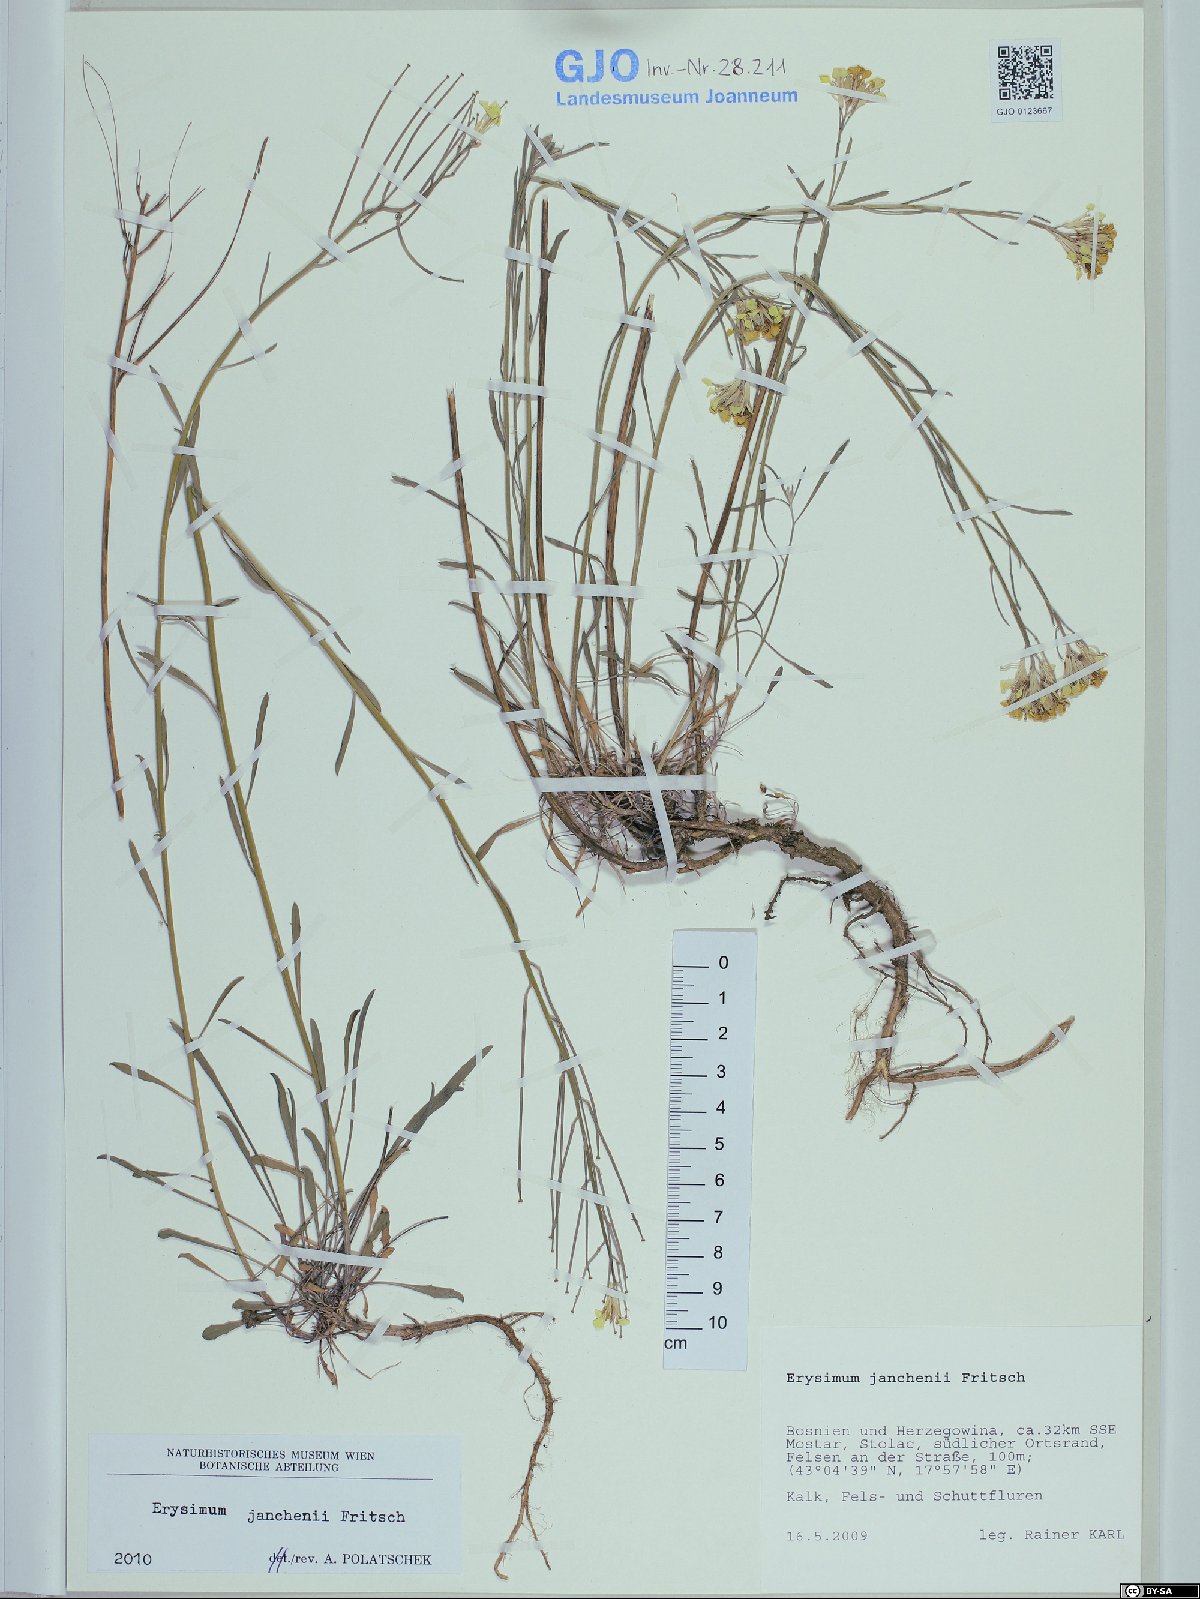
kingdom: Plantae
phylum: Tracheophyta
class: Magnoliopsida
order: Brassicales
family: Brassicaceae
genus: Erysimum
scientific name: Erysimum linariifolium
